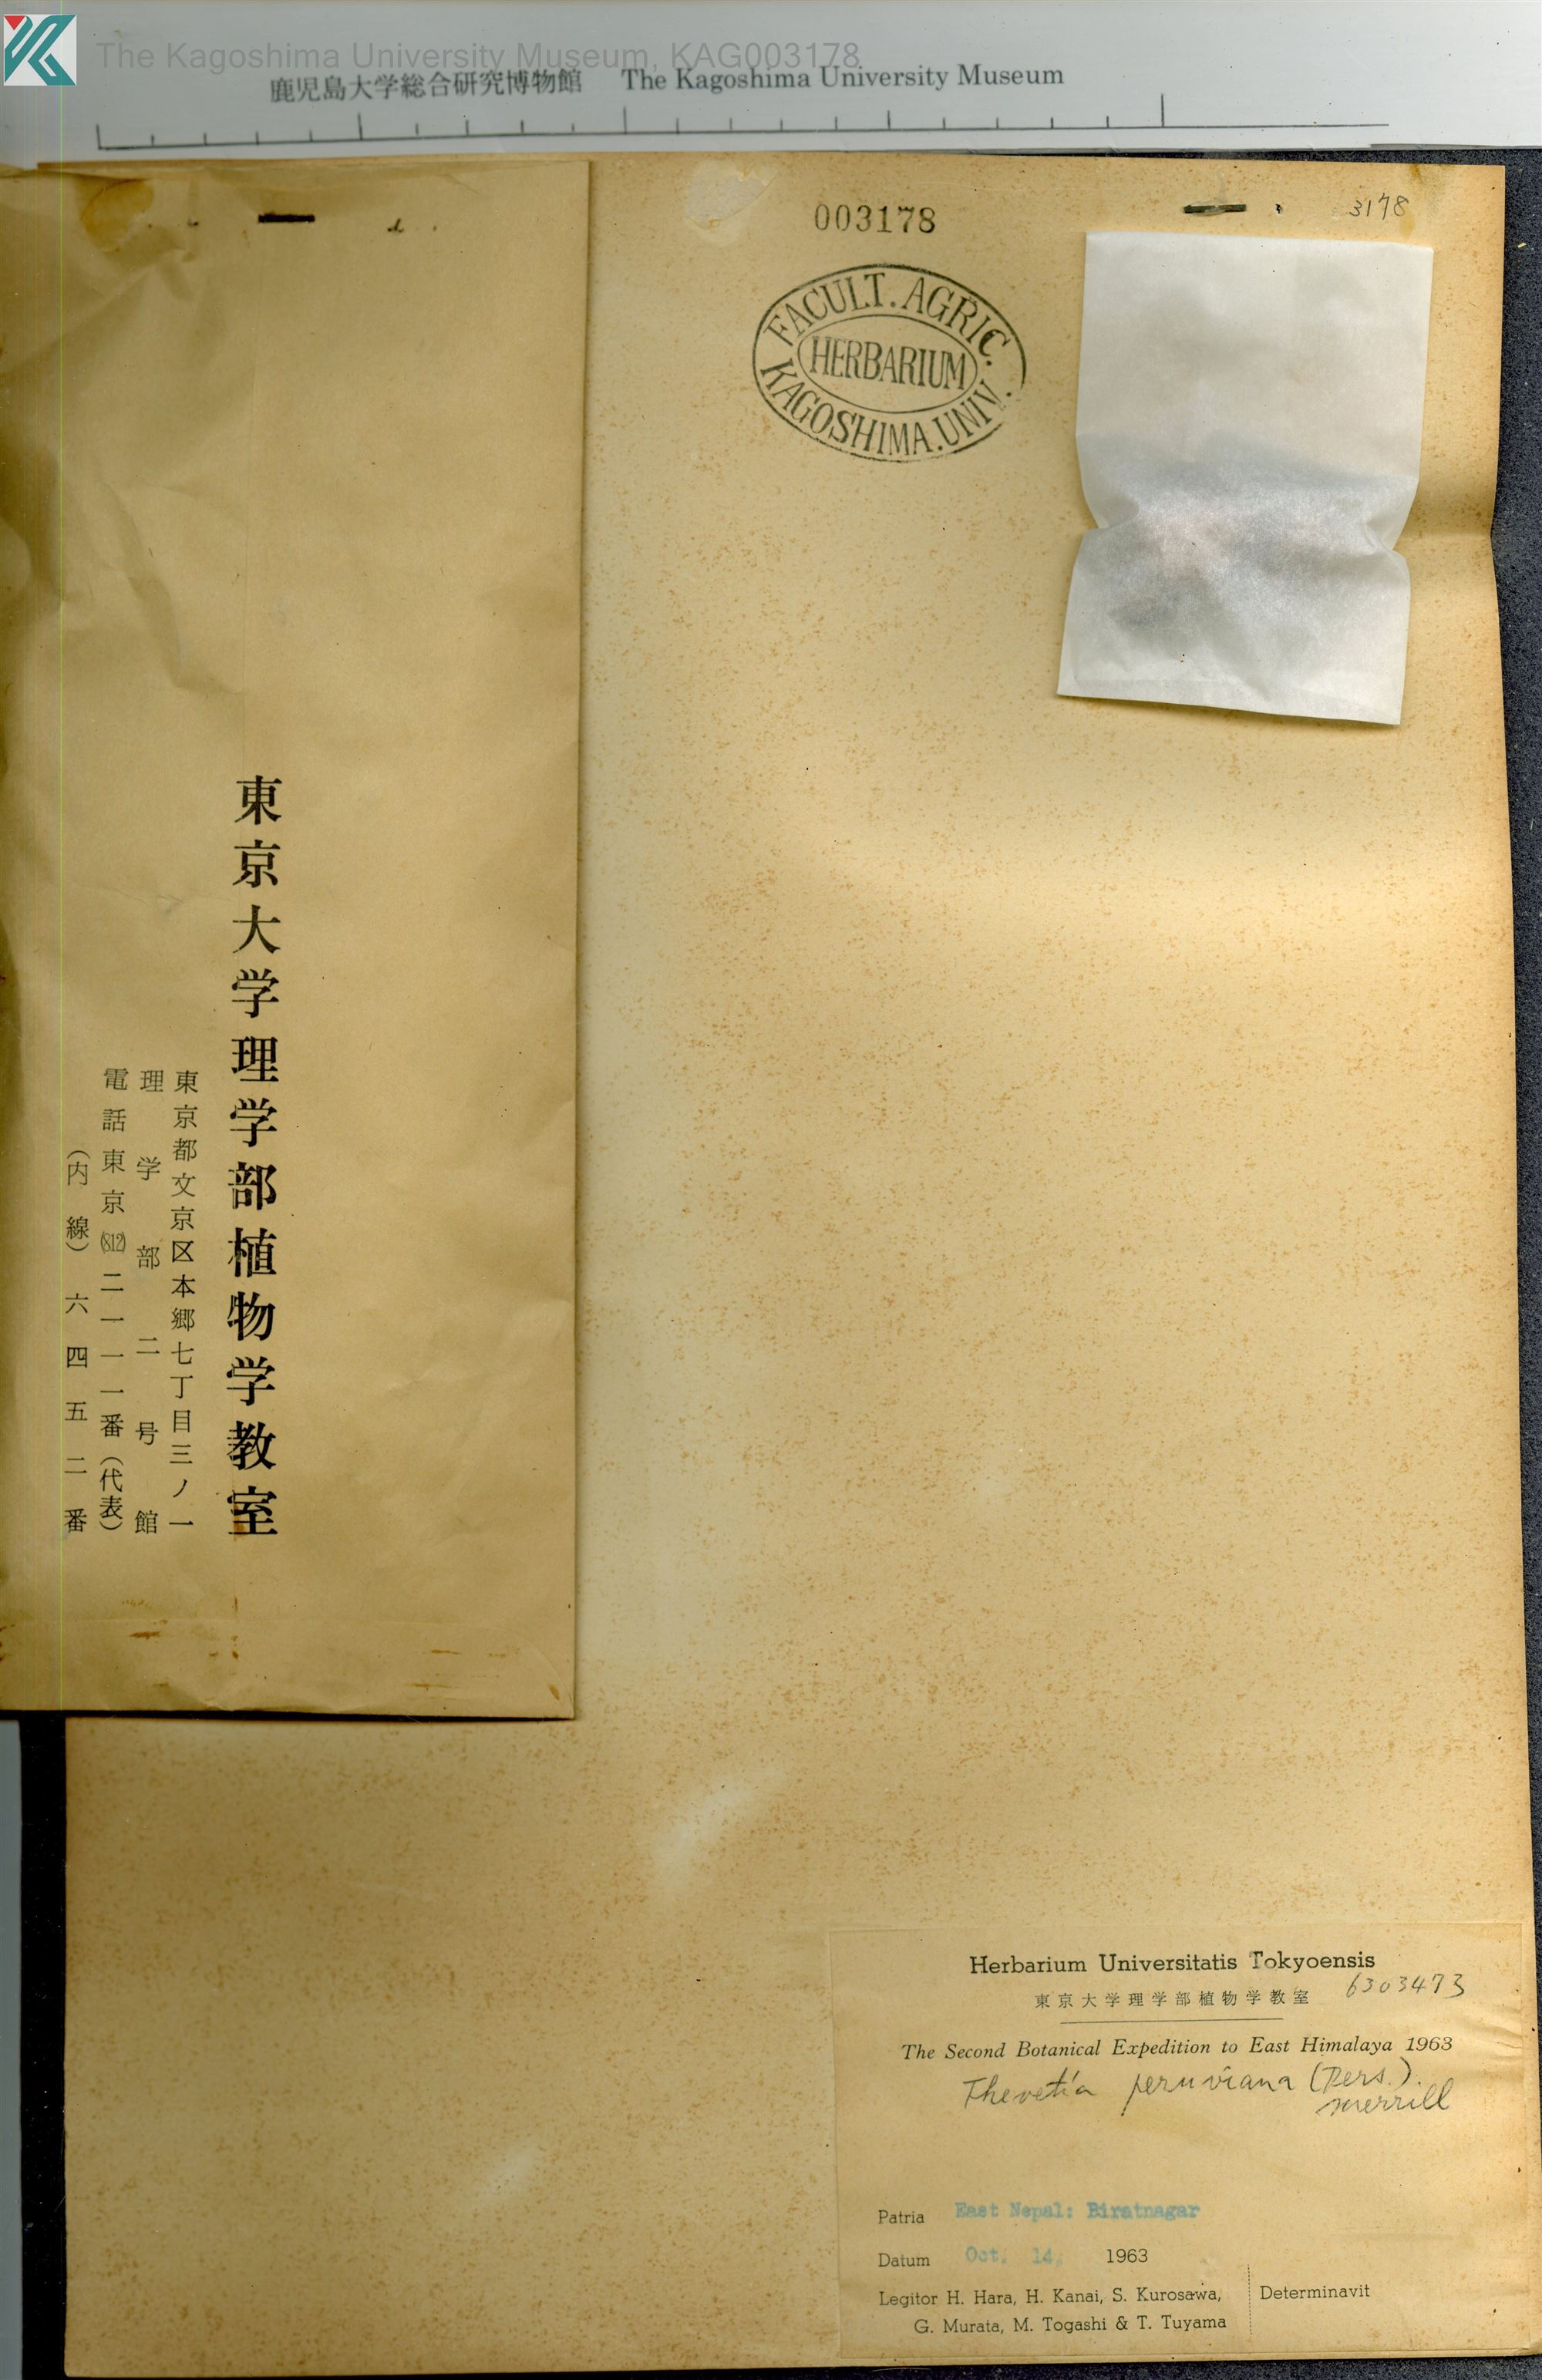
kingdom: Plantae
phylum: Tracheophyta
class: Magnoliopsida
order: Gentianales
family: Apocynaceae
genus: Cascabela
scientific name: Cascabela thevetia
